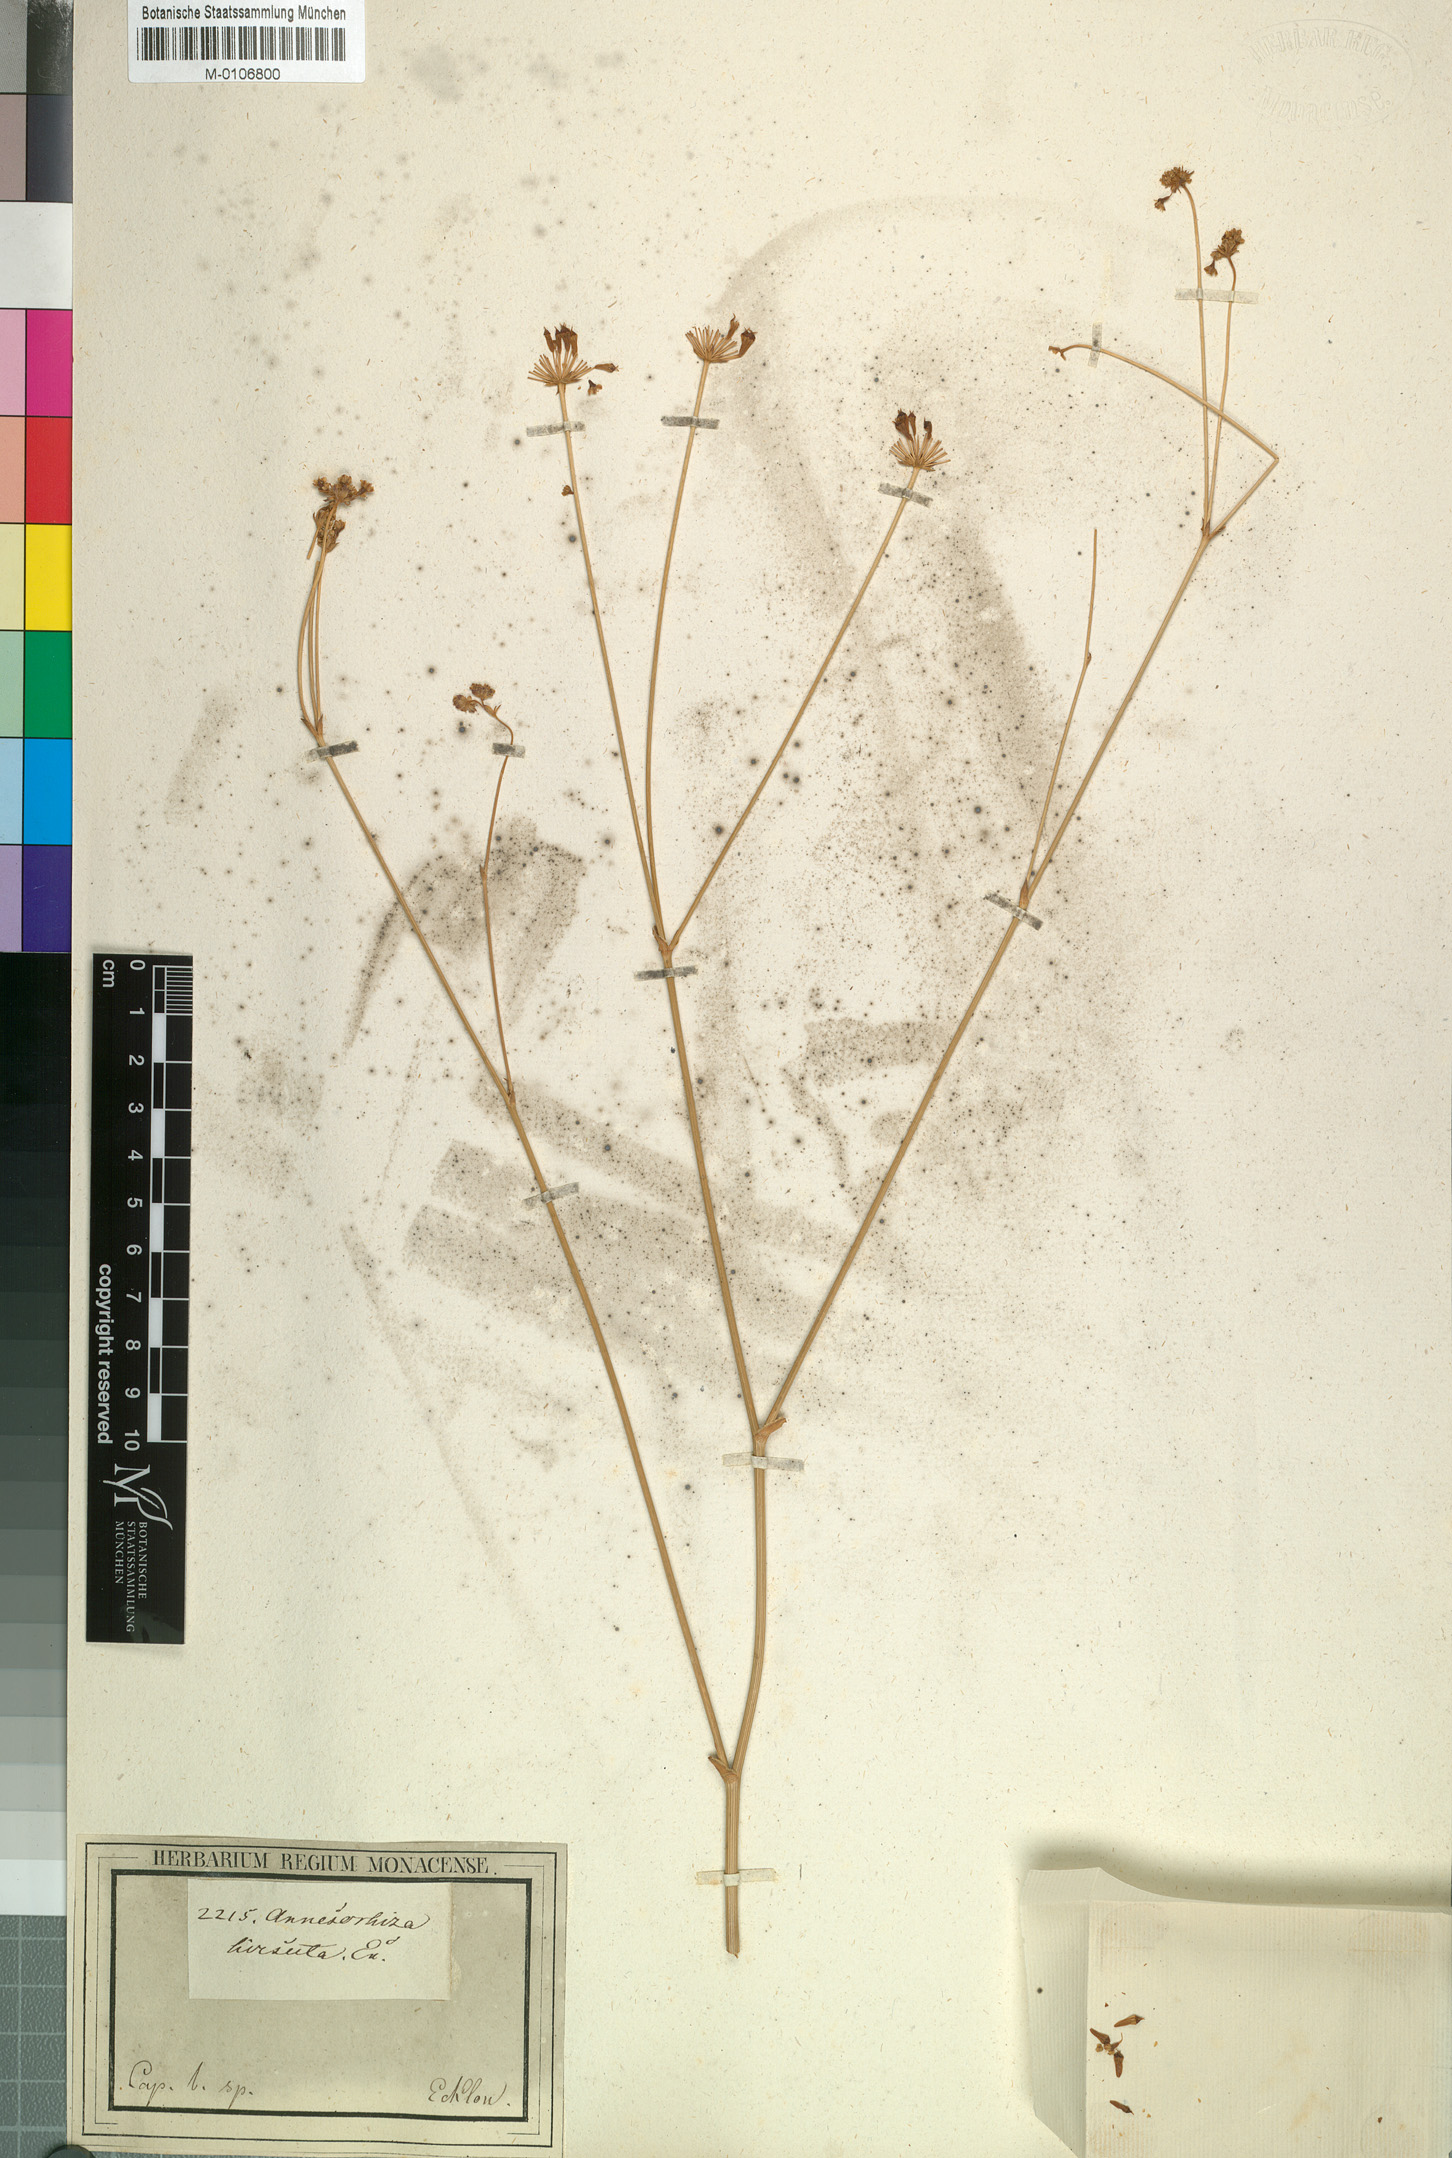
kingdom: Plantae
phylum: Tracheophyta
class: Magnoliopsida
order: Apiales
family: Apiaceae
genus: Annesorhiza
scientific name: Annesorhiza grandiflora
